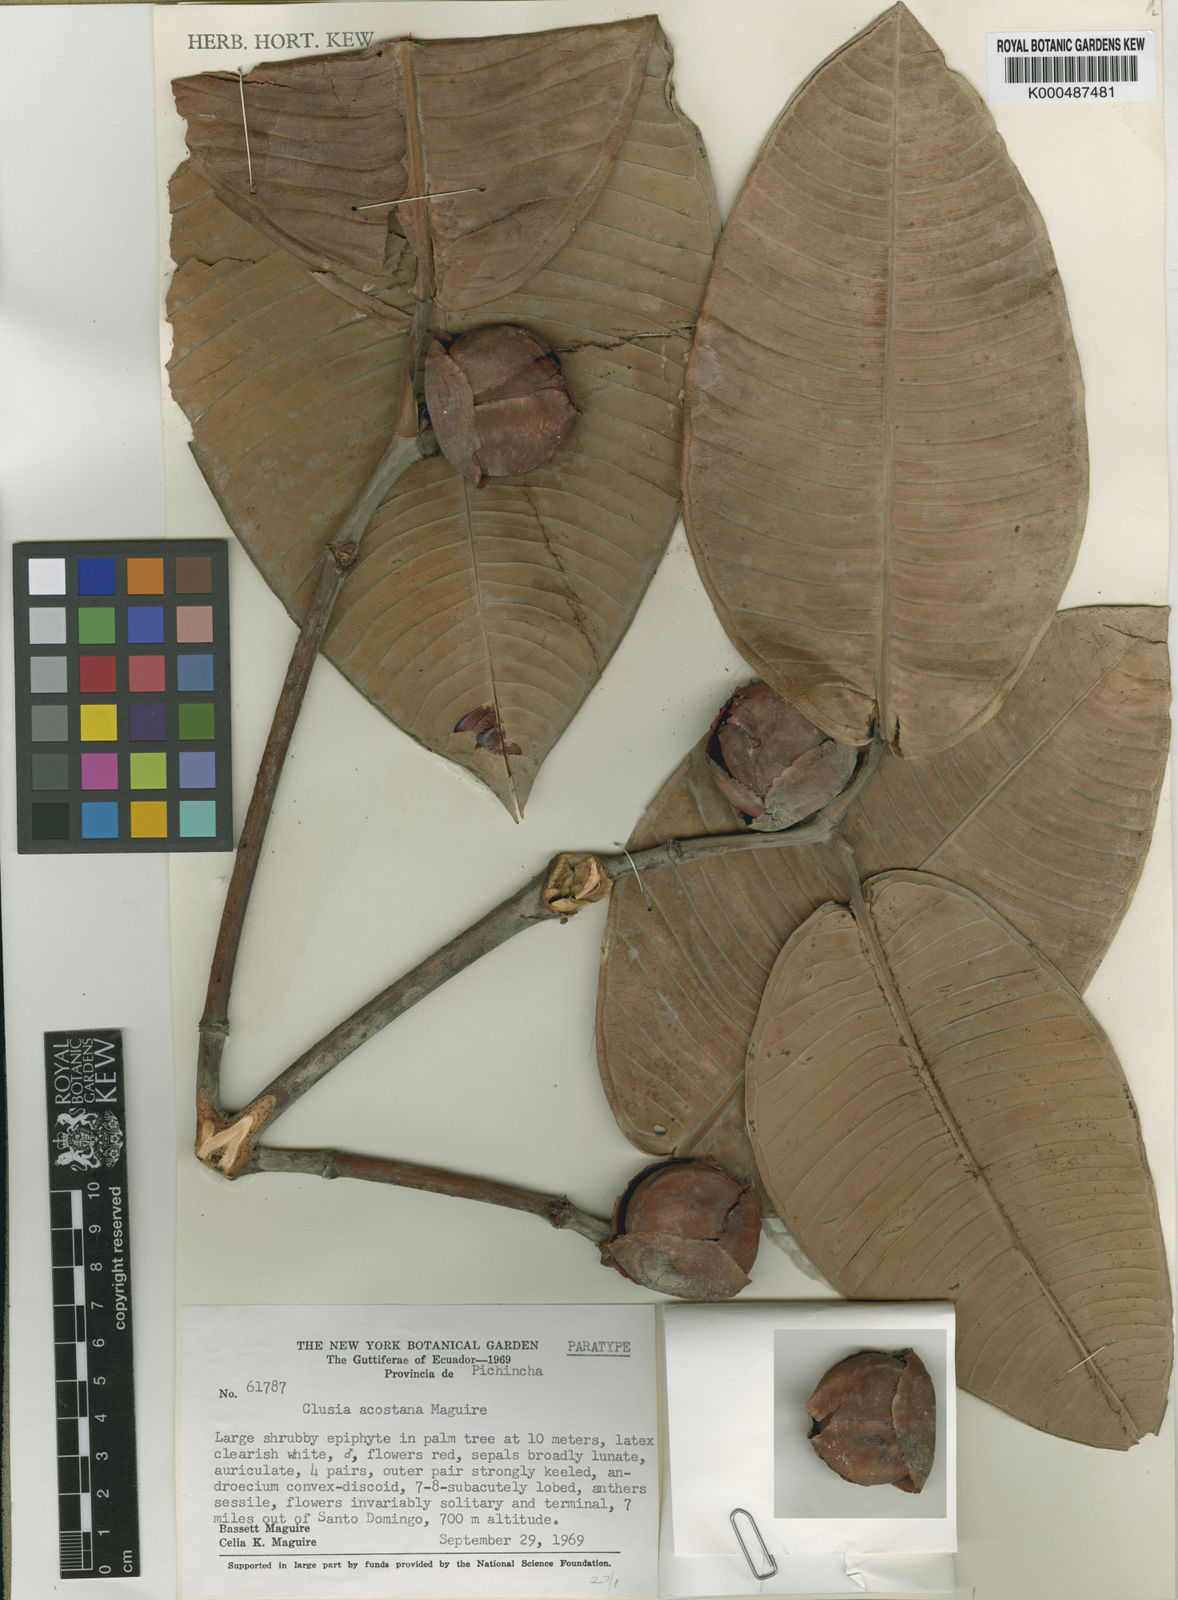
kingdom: Plantae
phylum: Tracheophyta
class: Magnoliopsida
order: Malpighiales
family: Clusiaceae
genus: Clusia
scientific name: Clusia venusta
